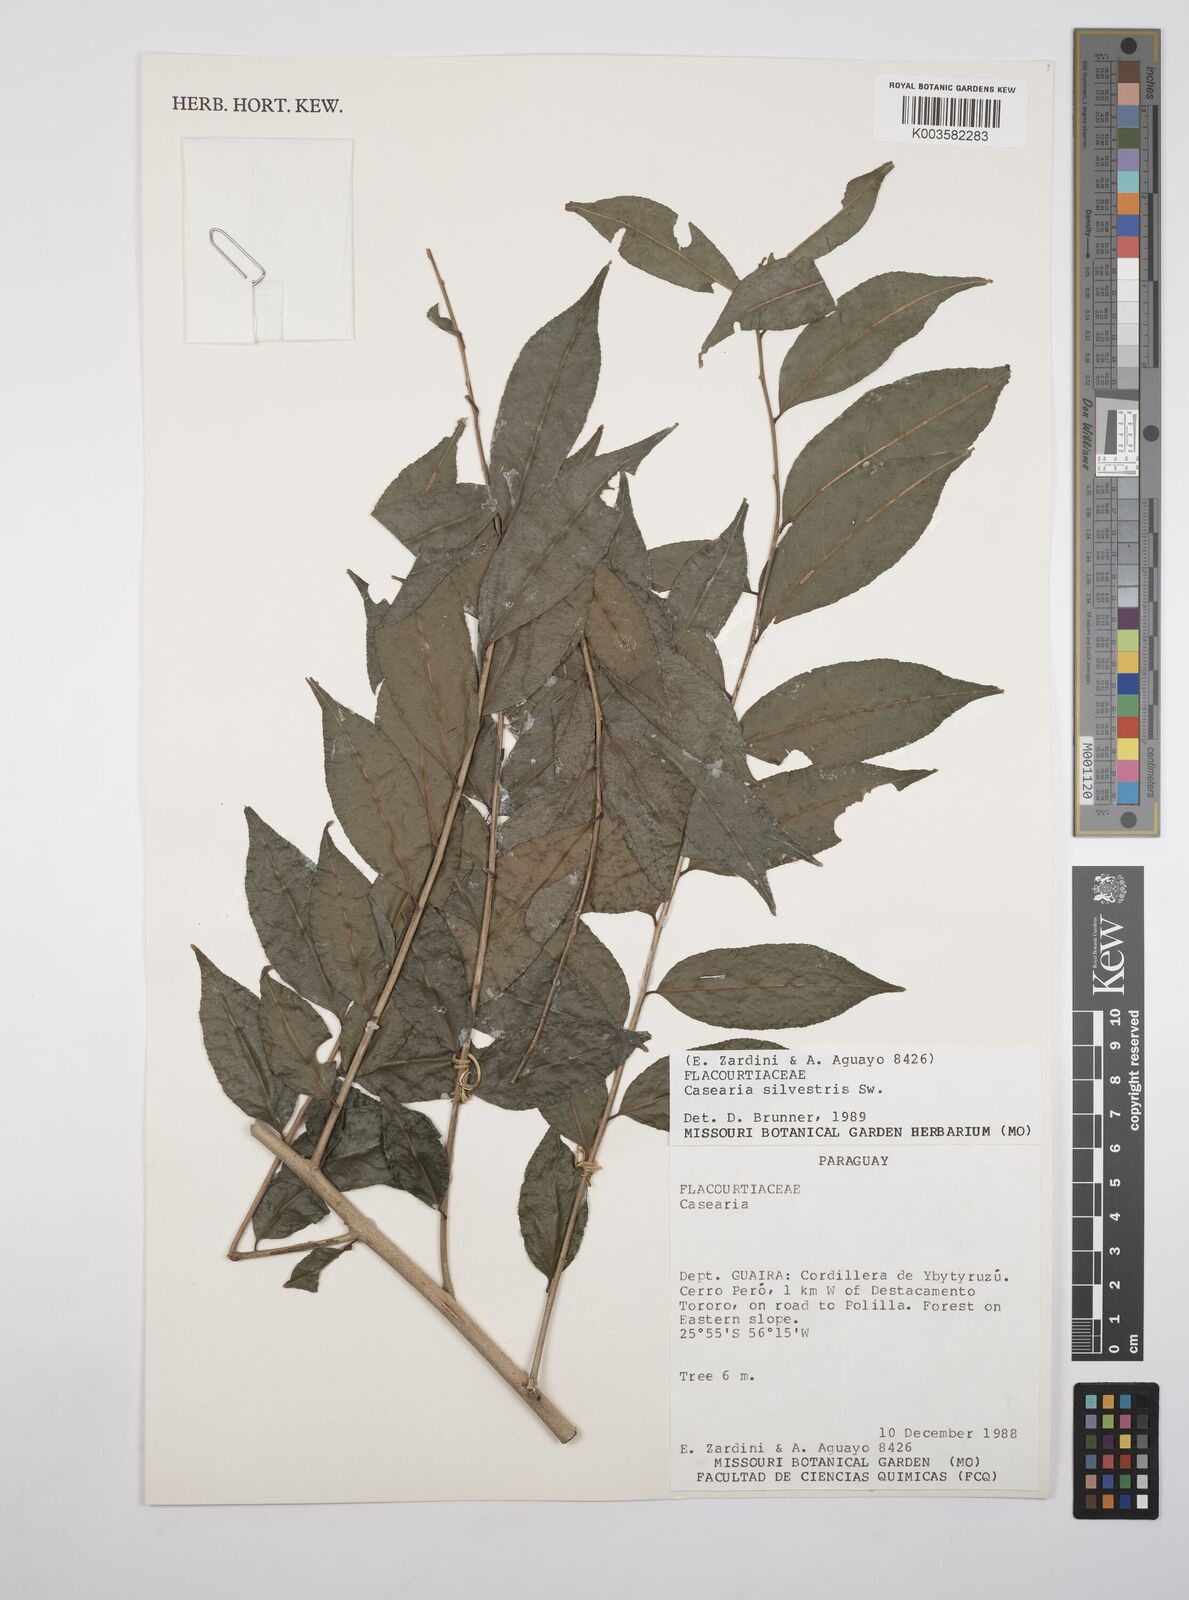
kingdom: Plantae
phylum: Tracheophyta
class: Magnoliopsida
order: Malpighiales
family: Salicaceae
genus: Casearia
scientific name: Casearia sylvestris
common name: Wild sage
